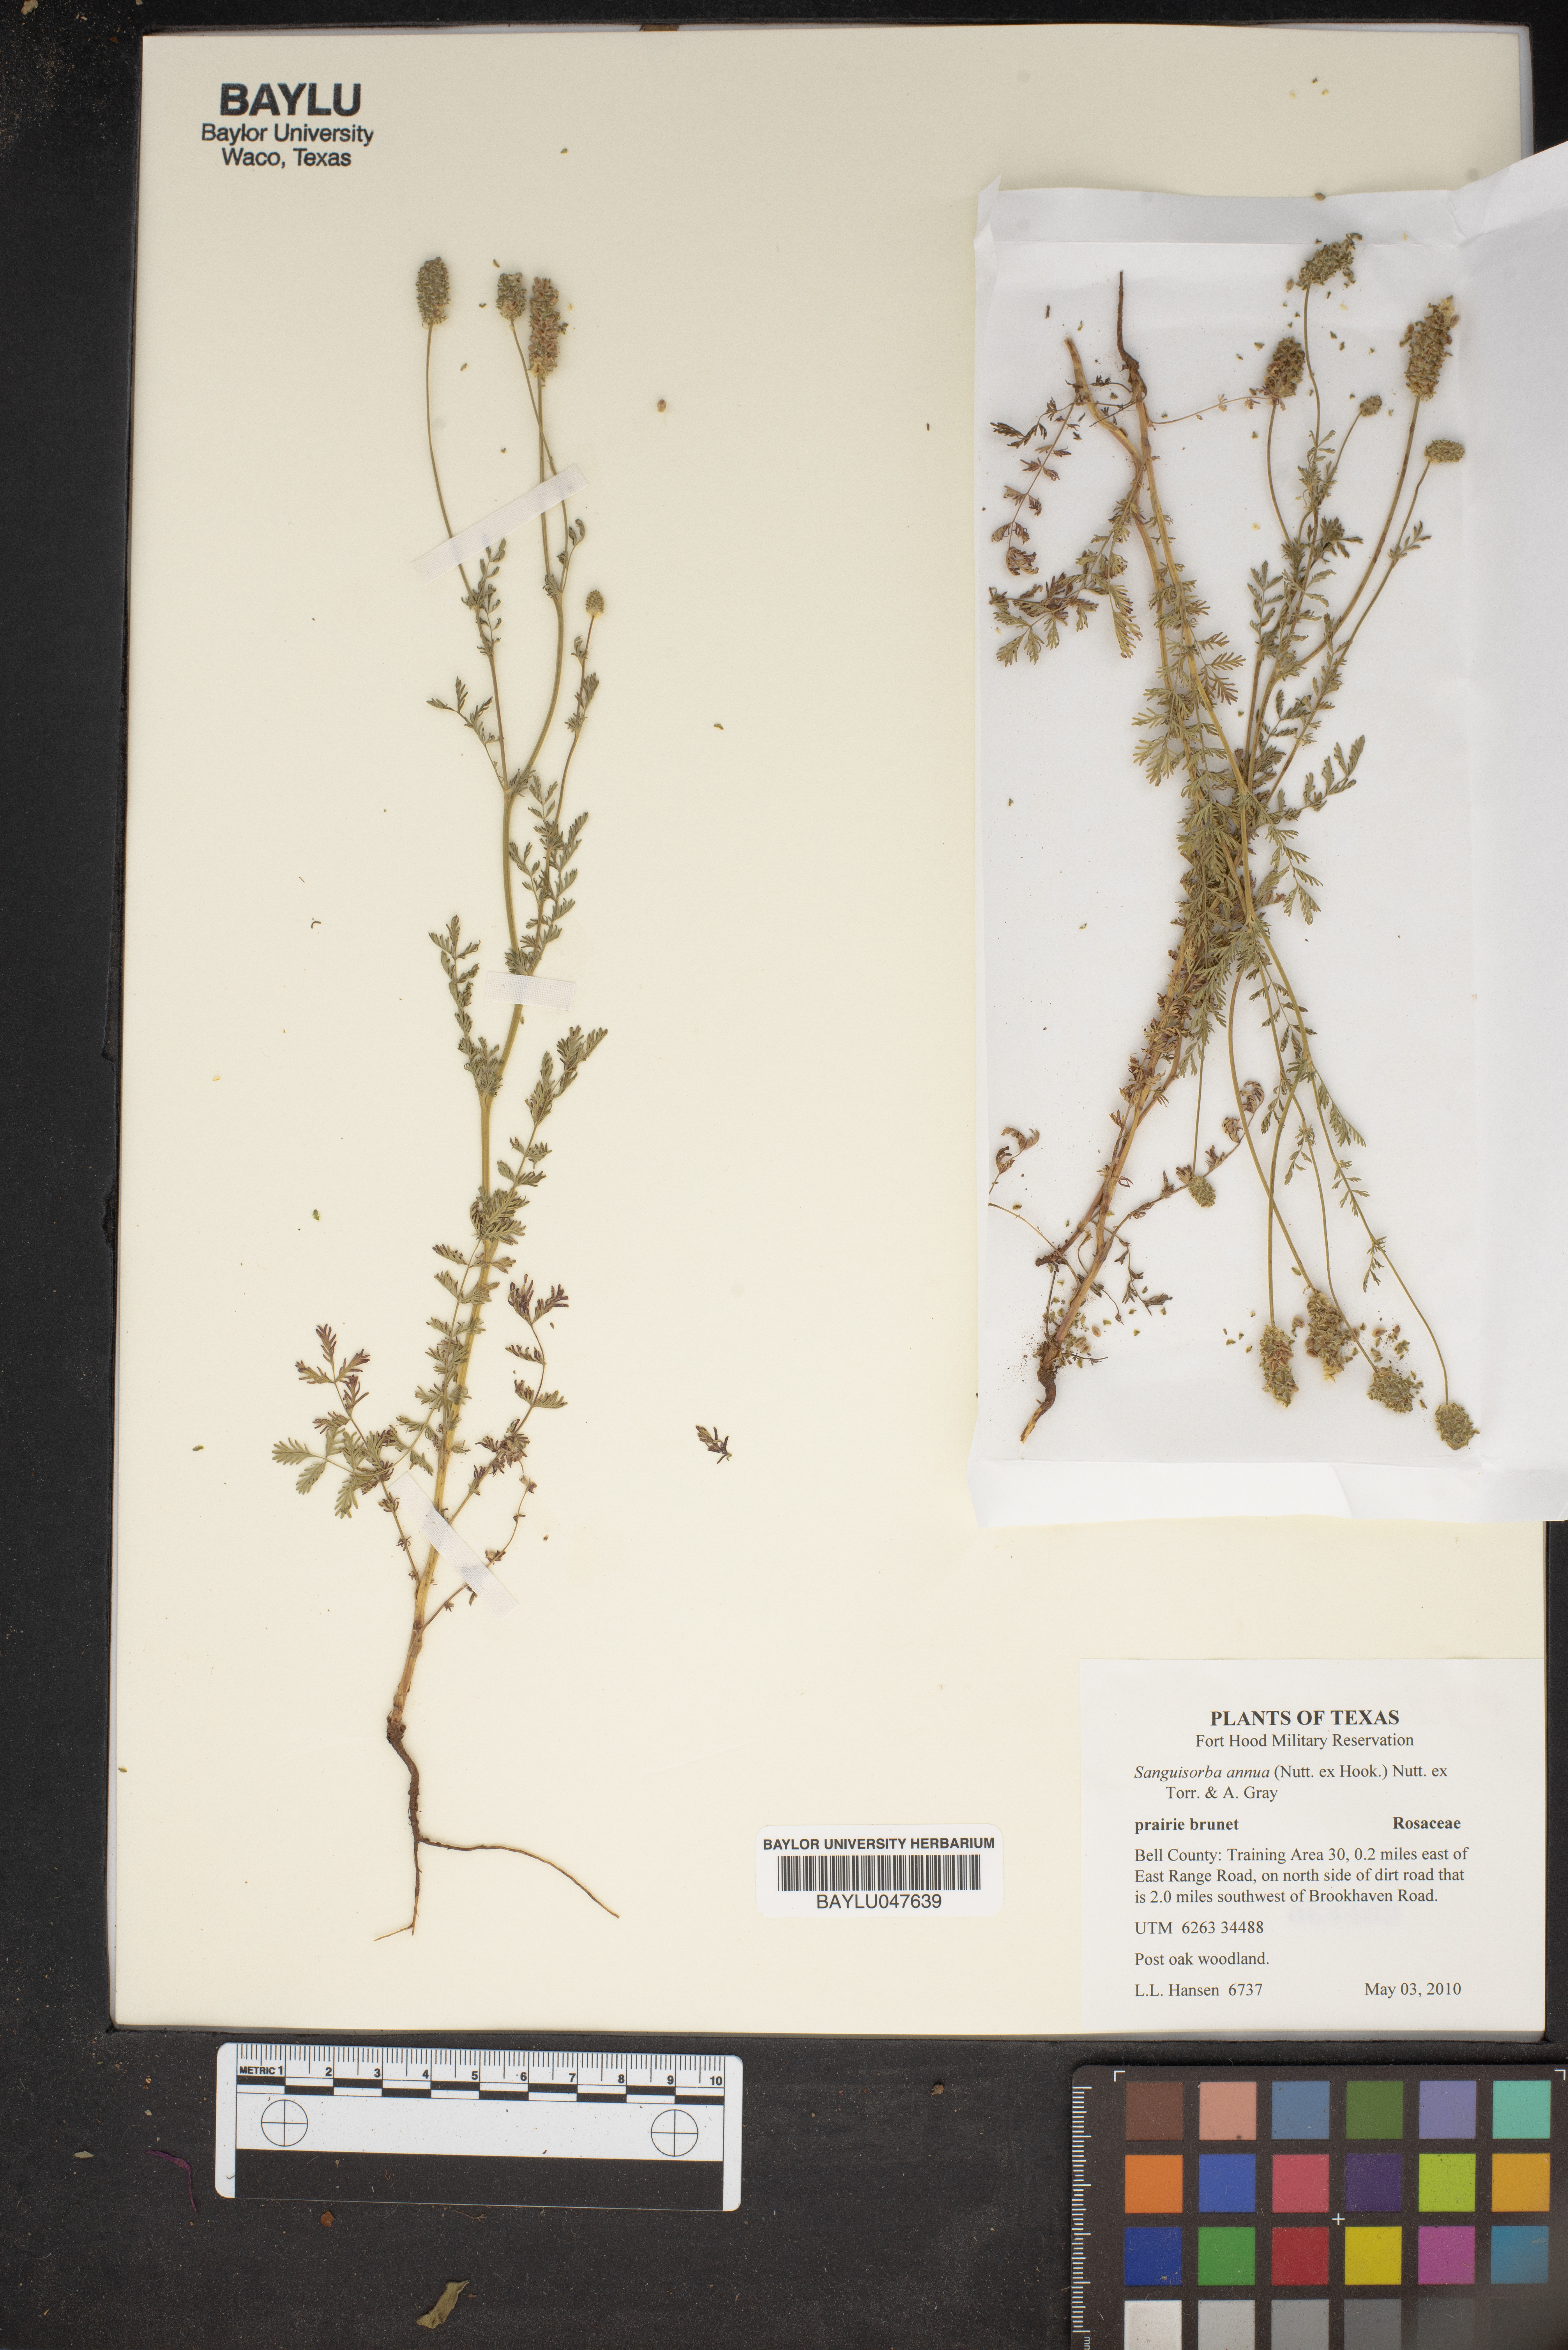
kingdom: Plantae
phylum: Tracheophyta
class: Magnoliopsida
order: Rosales
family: Rosaceae
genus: Poteridium
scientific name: Poteridium annuum
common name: Annual burnet
